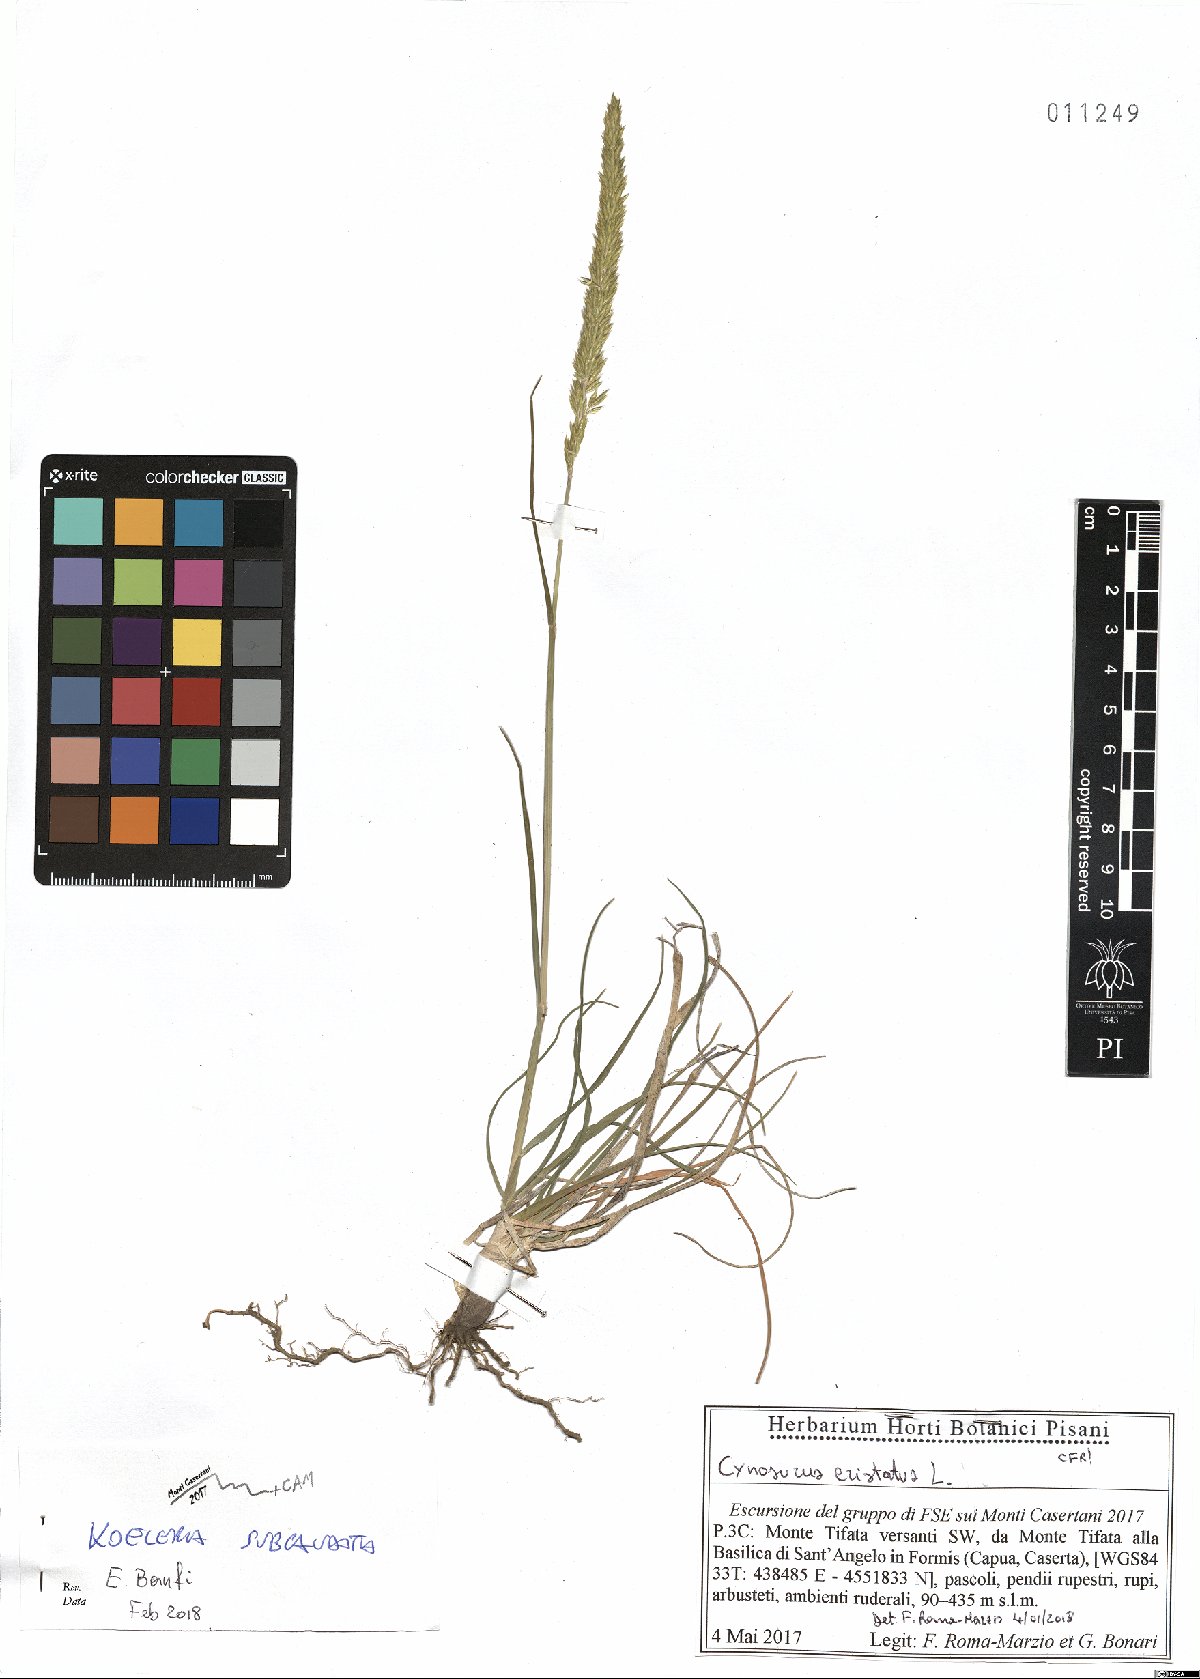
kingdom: Plantae
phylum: Tracheophyta
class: Liliopsida
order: Poales
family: Poaceae
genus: Koeleria
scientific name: Koeleria splendens
